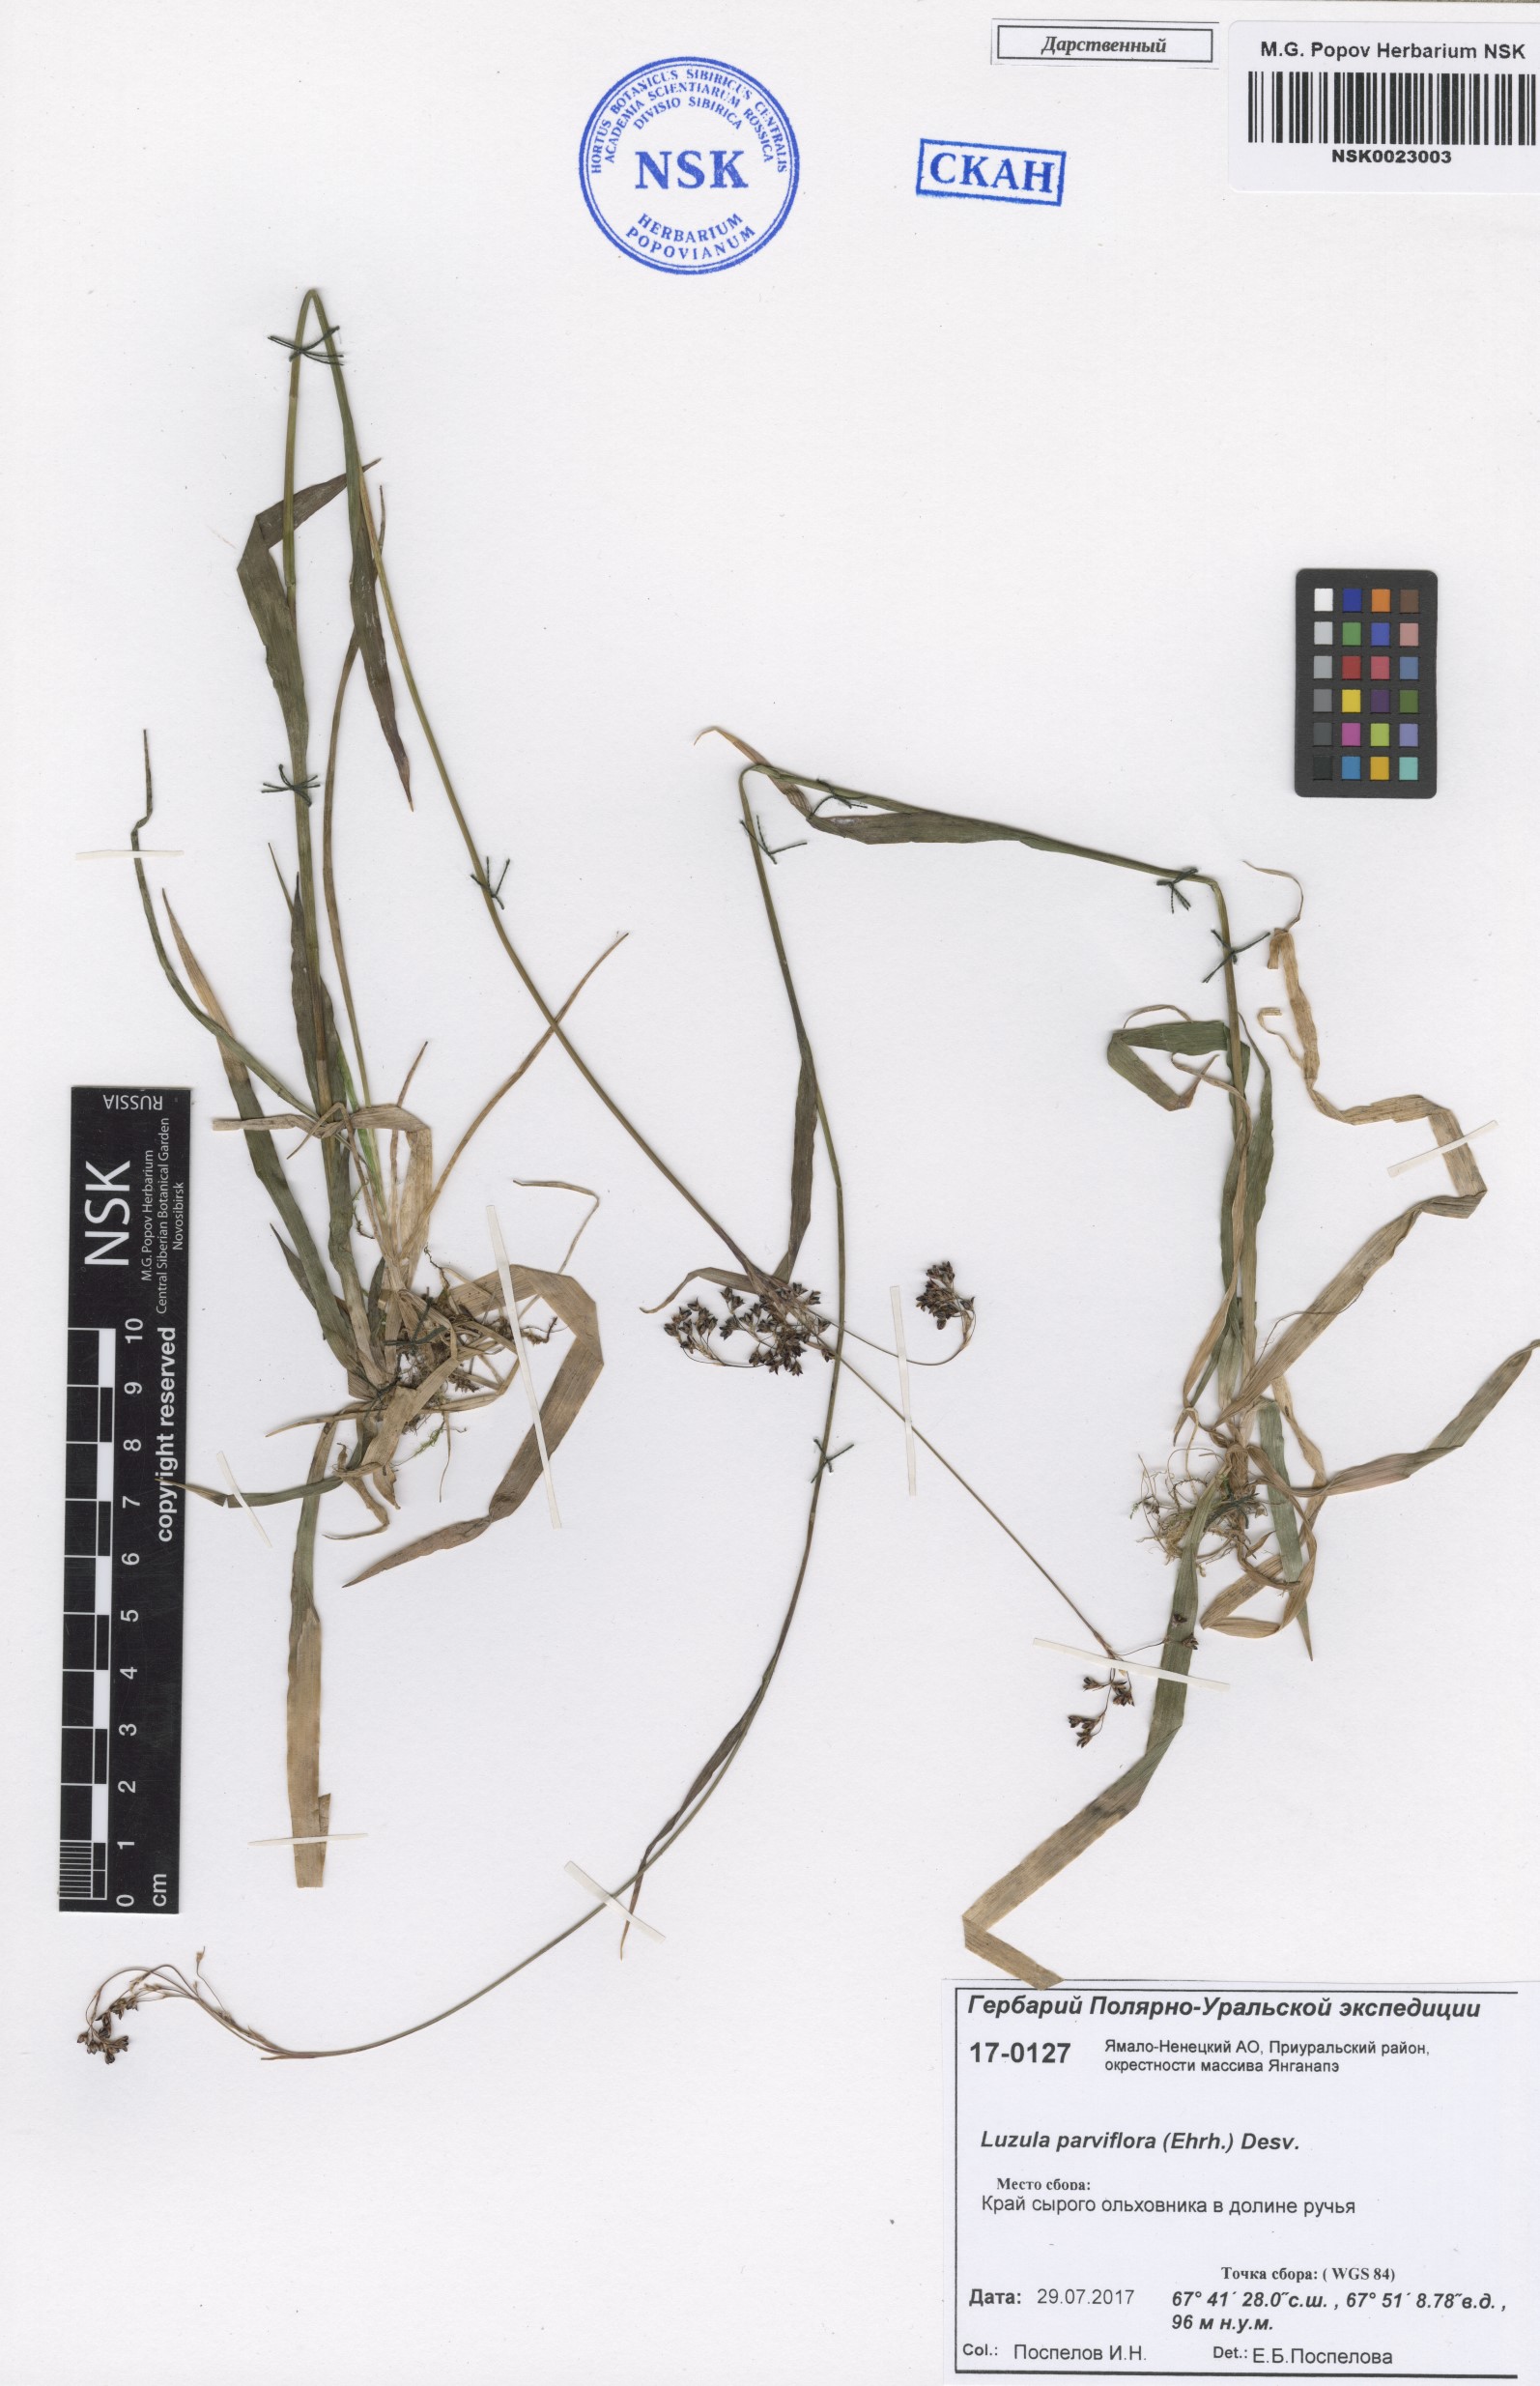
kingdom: Plantae
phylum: Tracheophyta
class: Liliopsida
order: Poales
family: Juncaceae
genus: Luzula
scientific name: Luzula parviflora
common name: Millet woodrush
